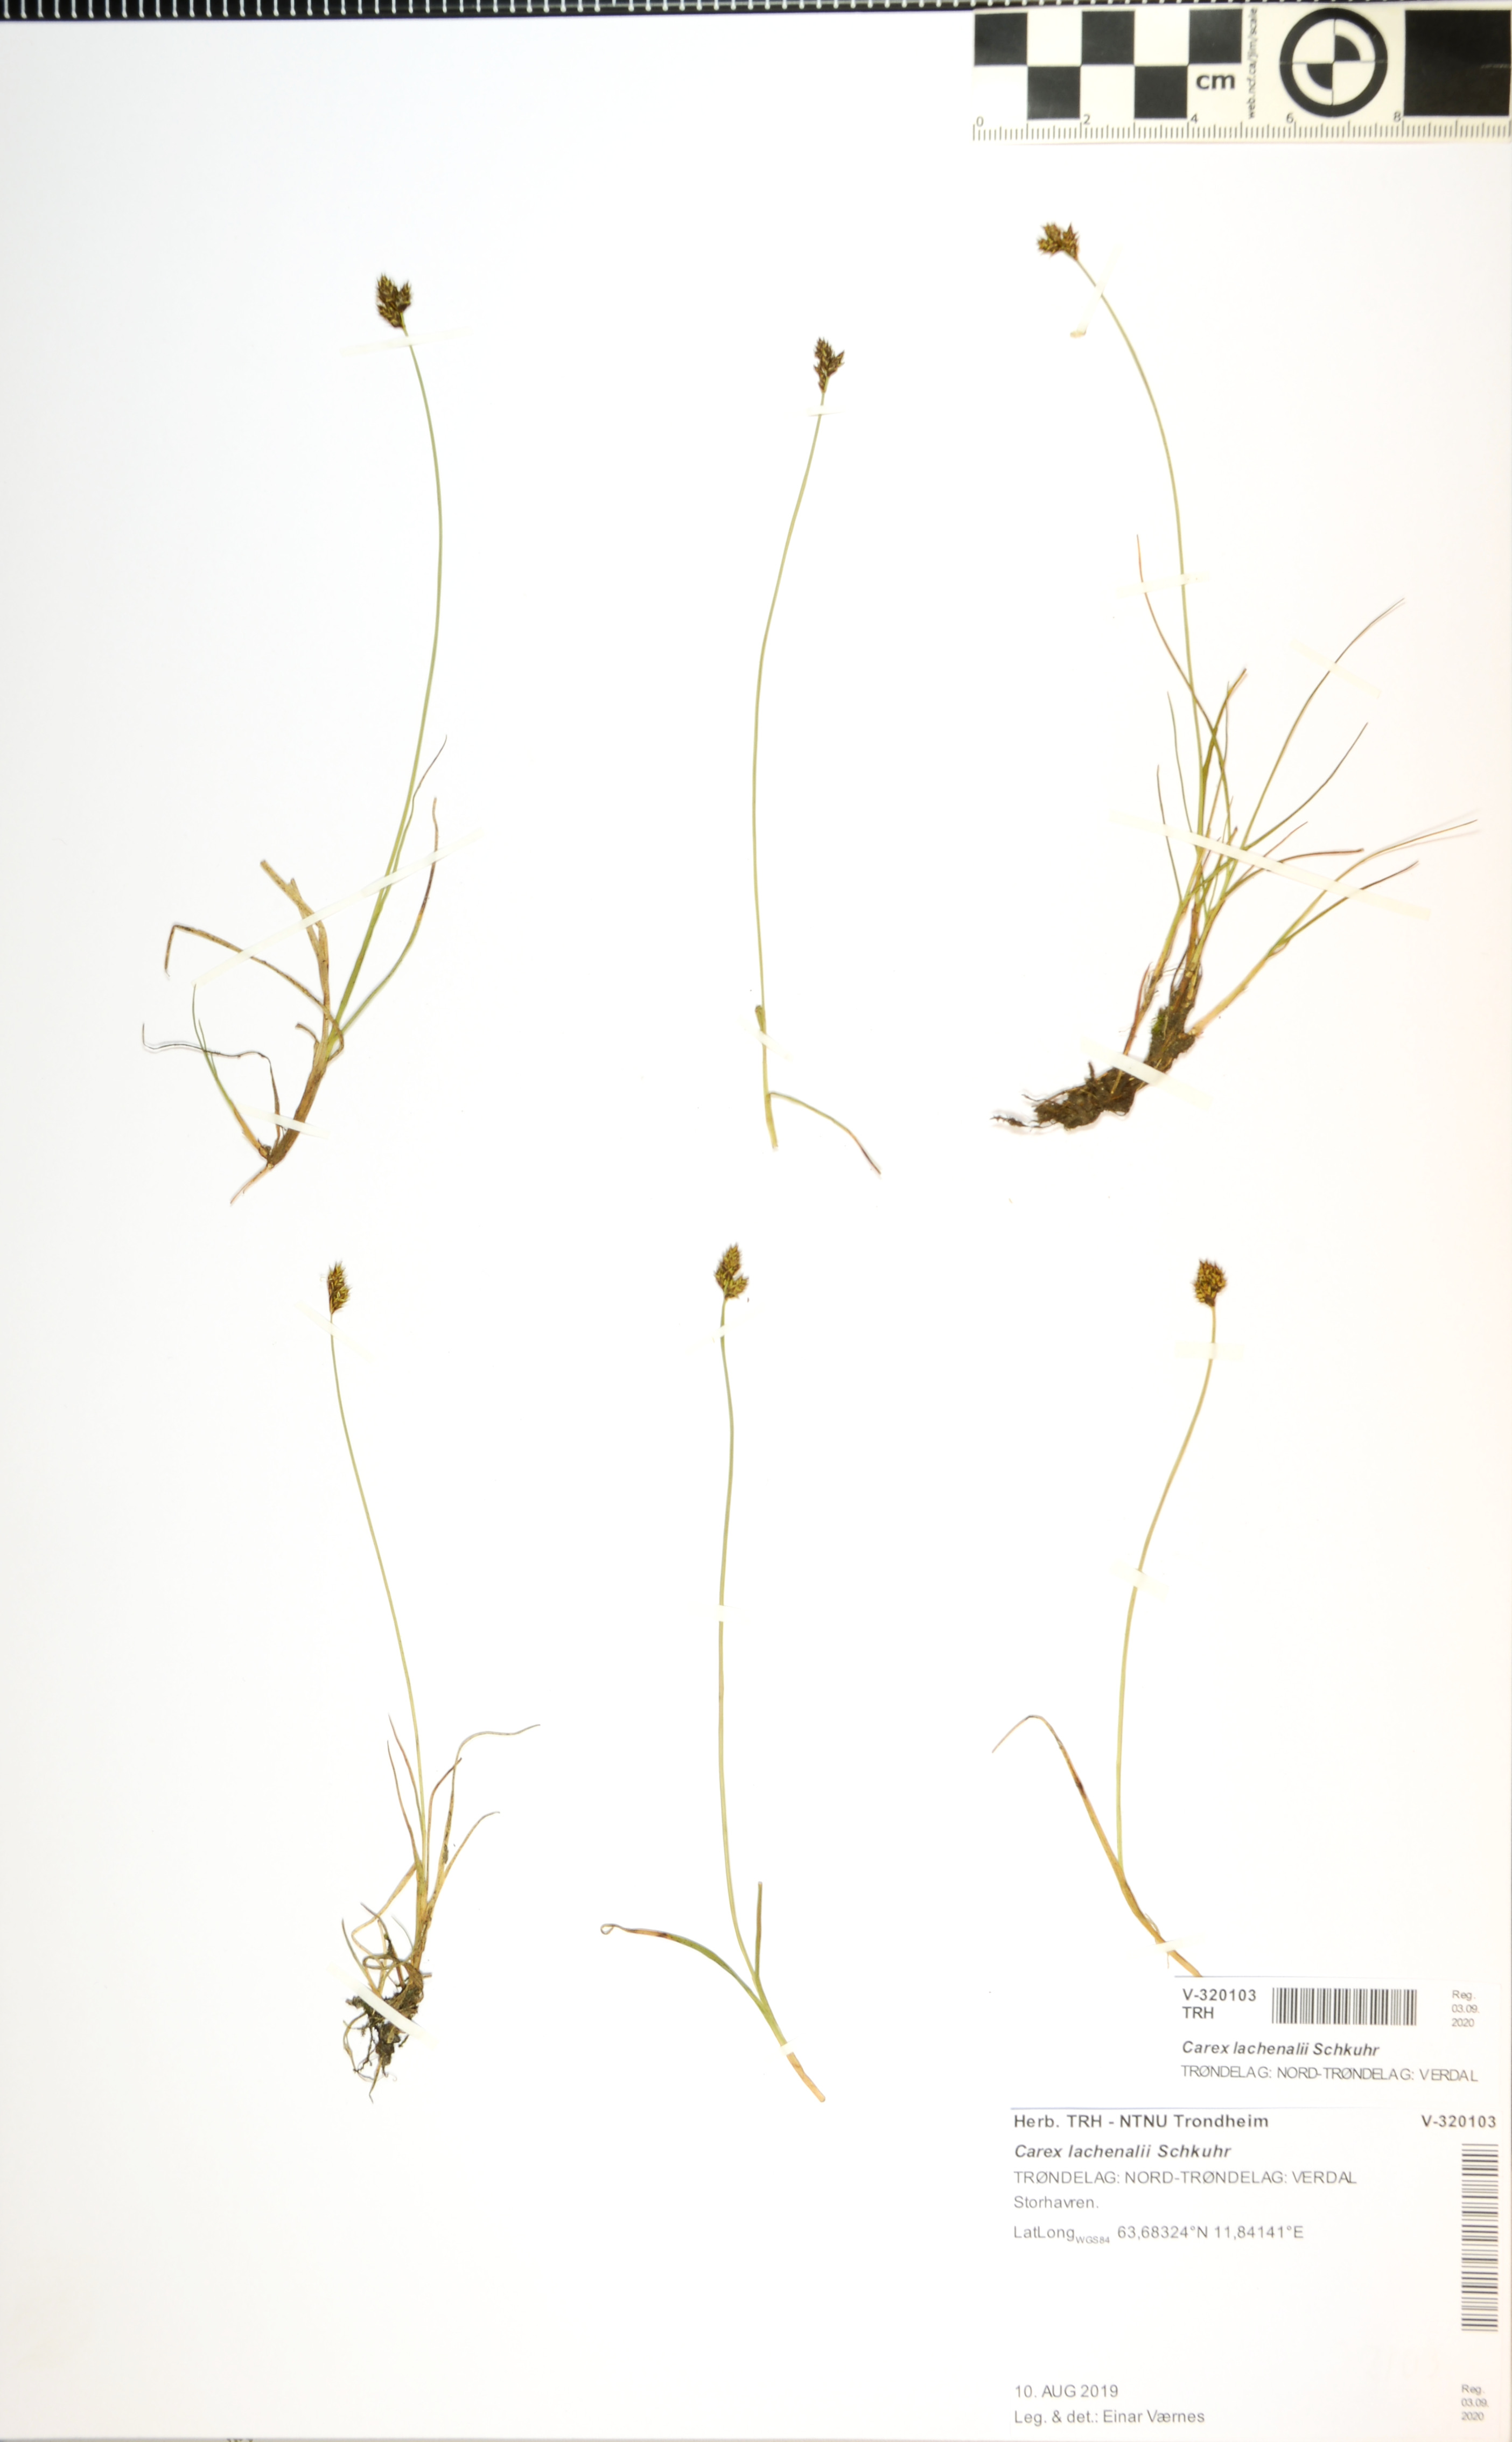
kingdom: Plantae
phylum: Tracheophyta
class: Liliopsida
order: Poales
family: Cyperaceae
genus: Carex
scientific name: Carex lachenalii
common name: Hare's-foot sedge
